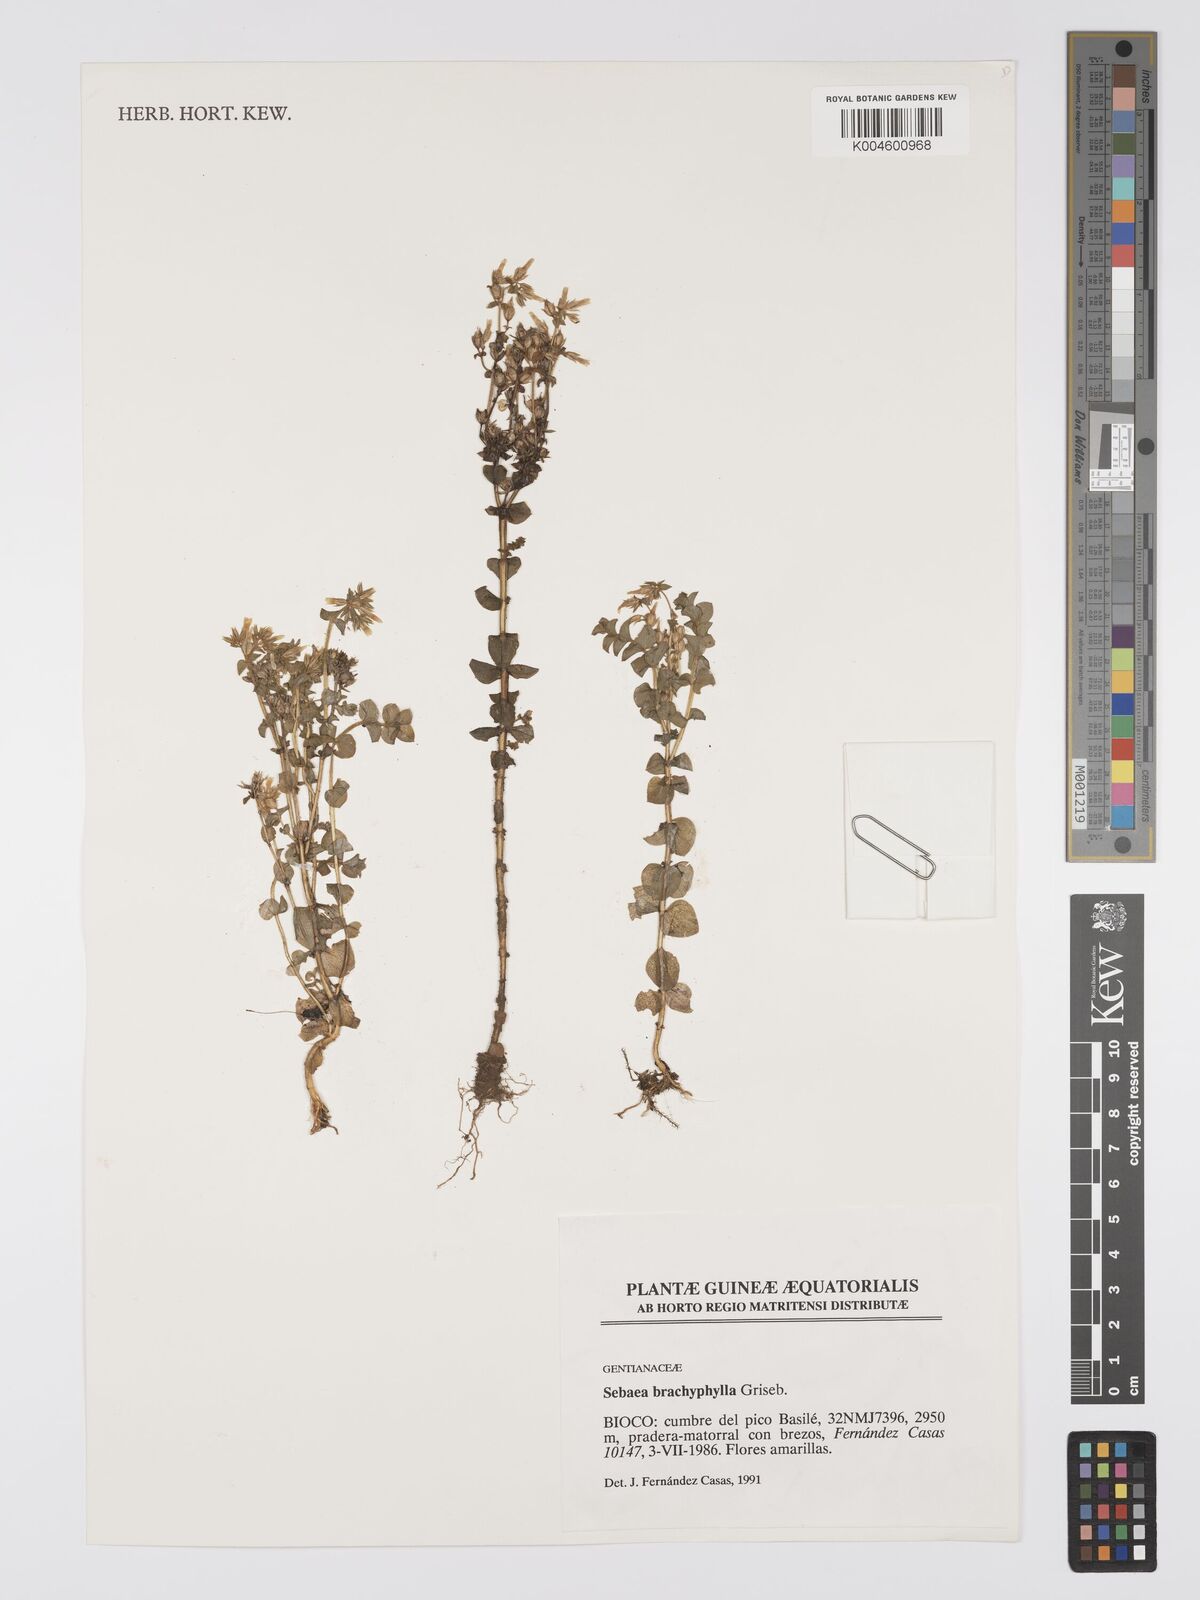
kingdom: Plantae
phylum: Tracheophyta
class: Magnoliopsida
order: Gentianales
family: Gentianaceae
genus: Sebaea
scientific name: Sebaea brachyphylla
